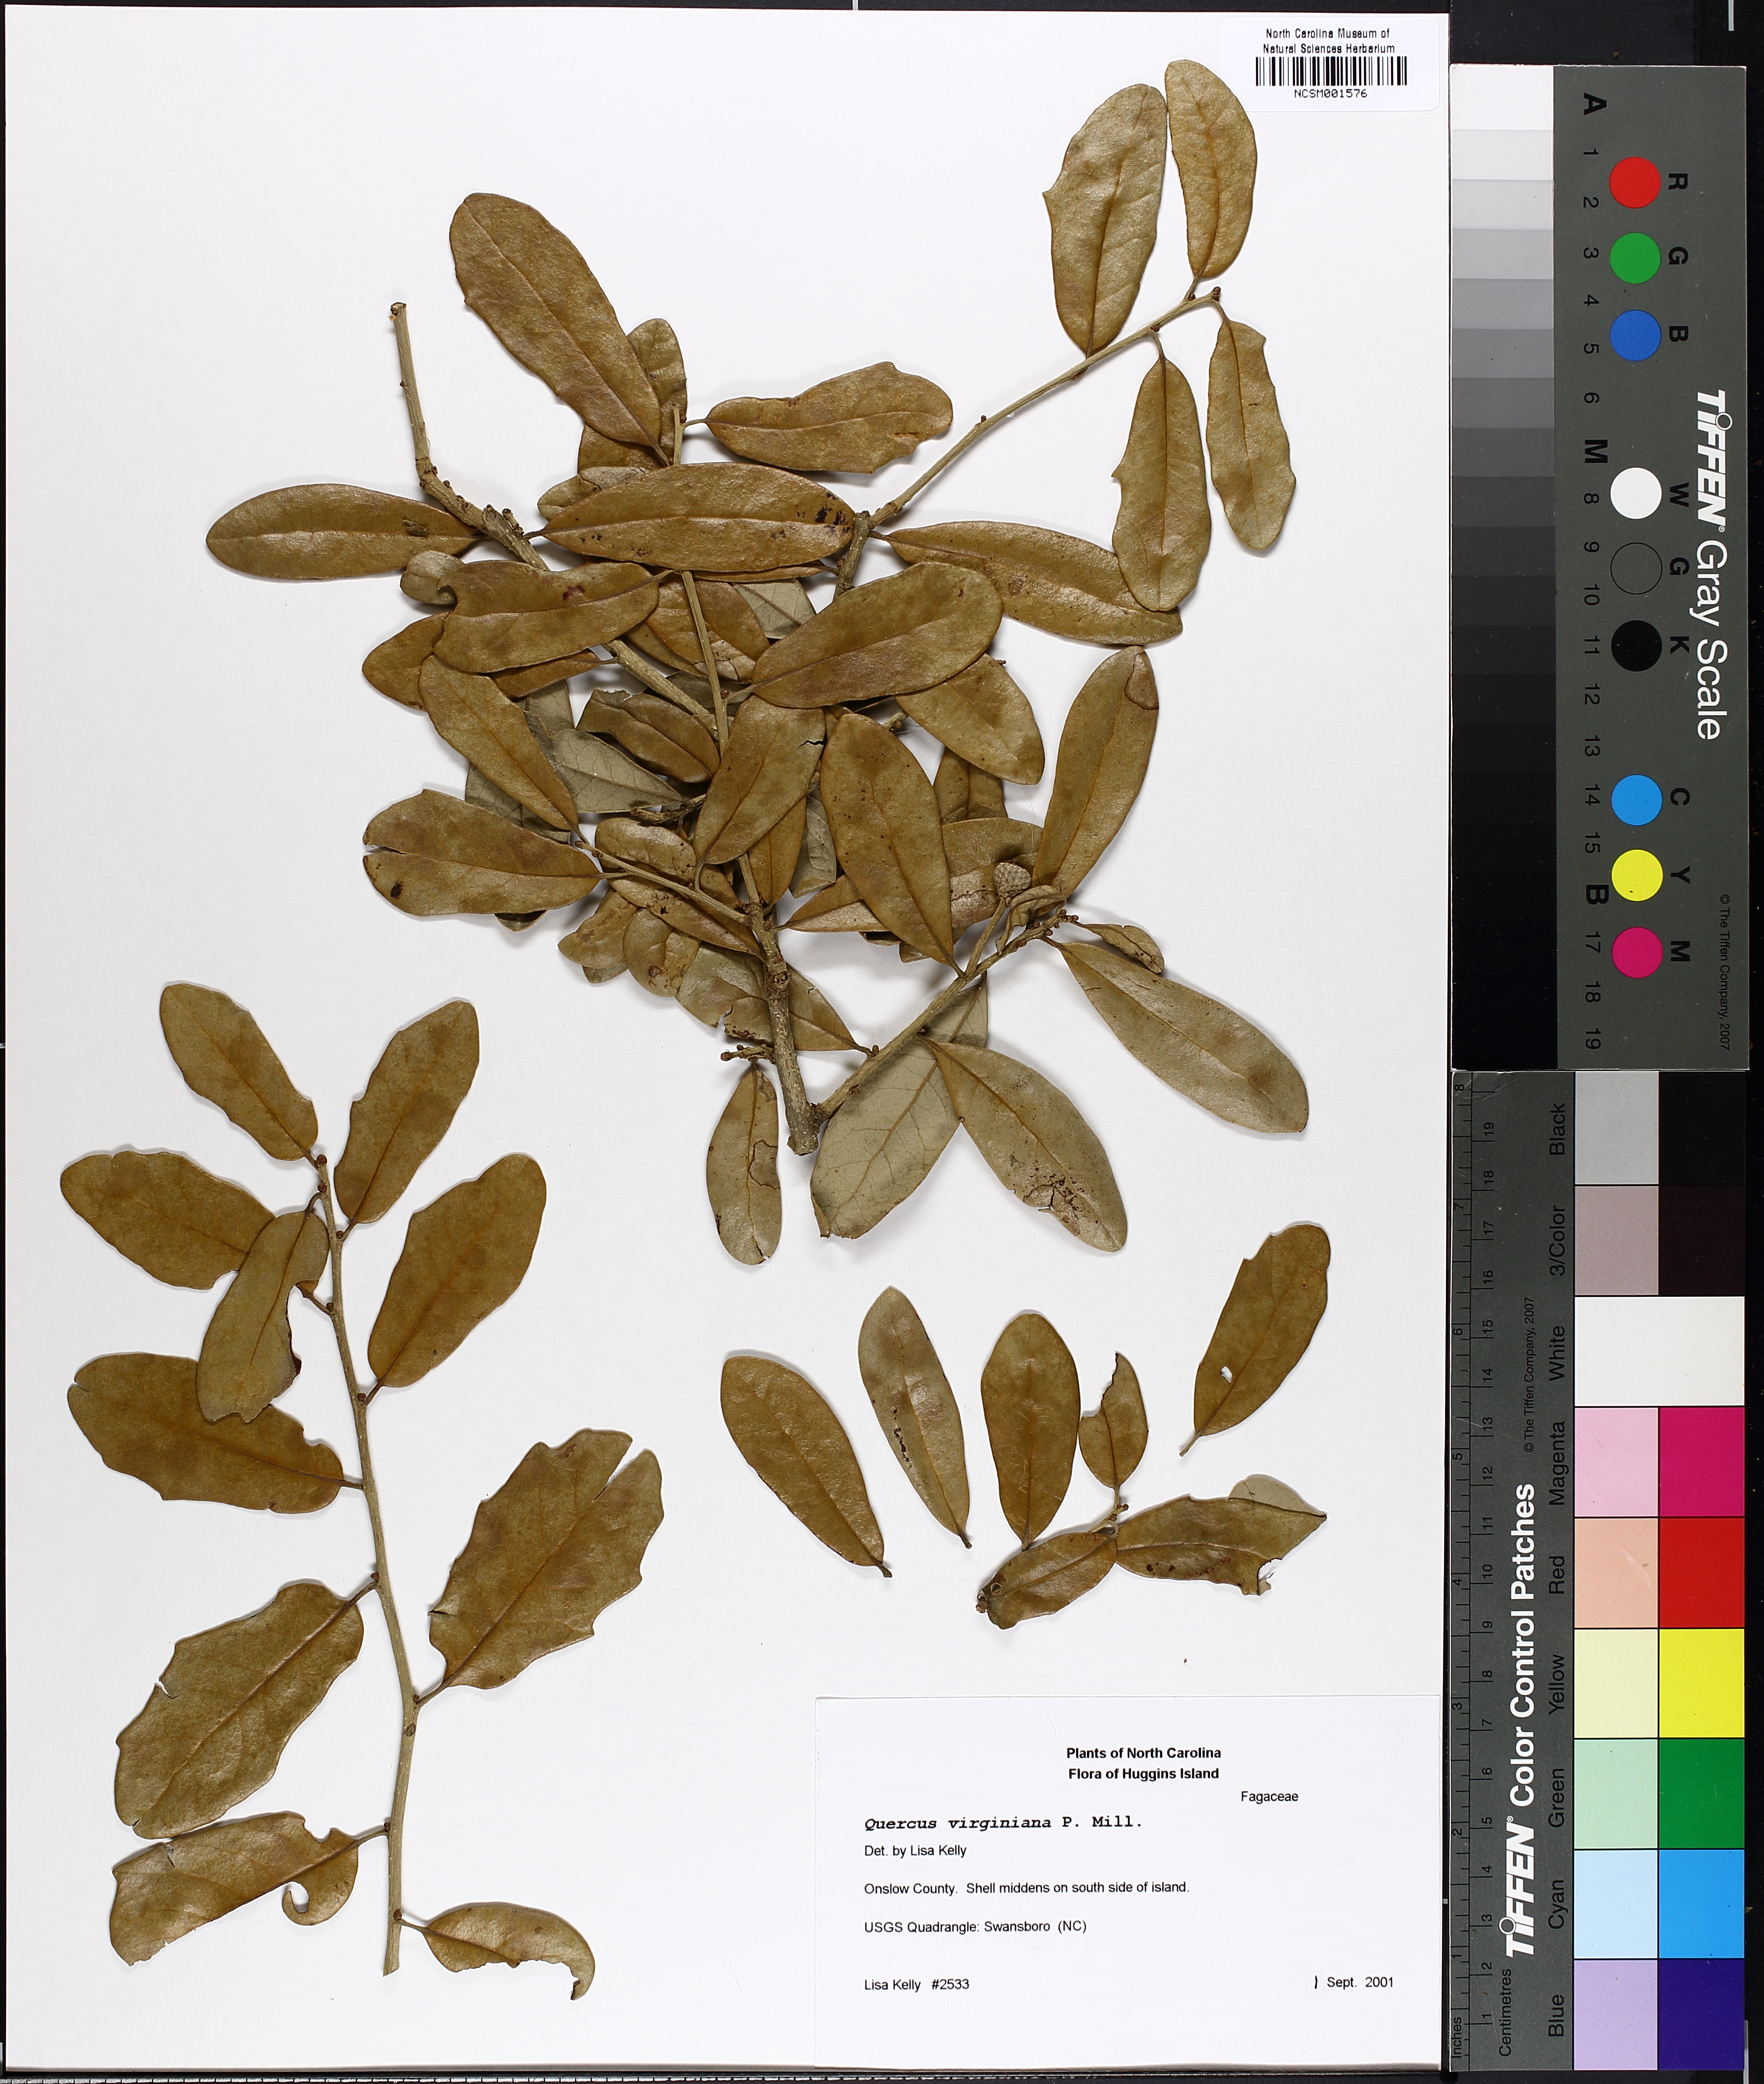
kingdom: Plantae
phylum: Tracheophyta
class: Magnoliopsida
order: Fagales
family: Fagaceae
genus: Quercus
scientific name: Quercus virginiana
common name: Southern live oak
